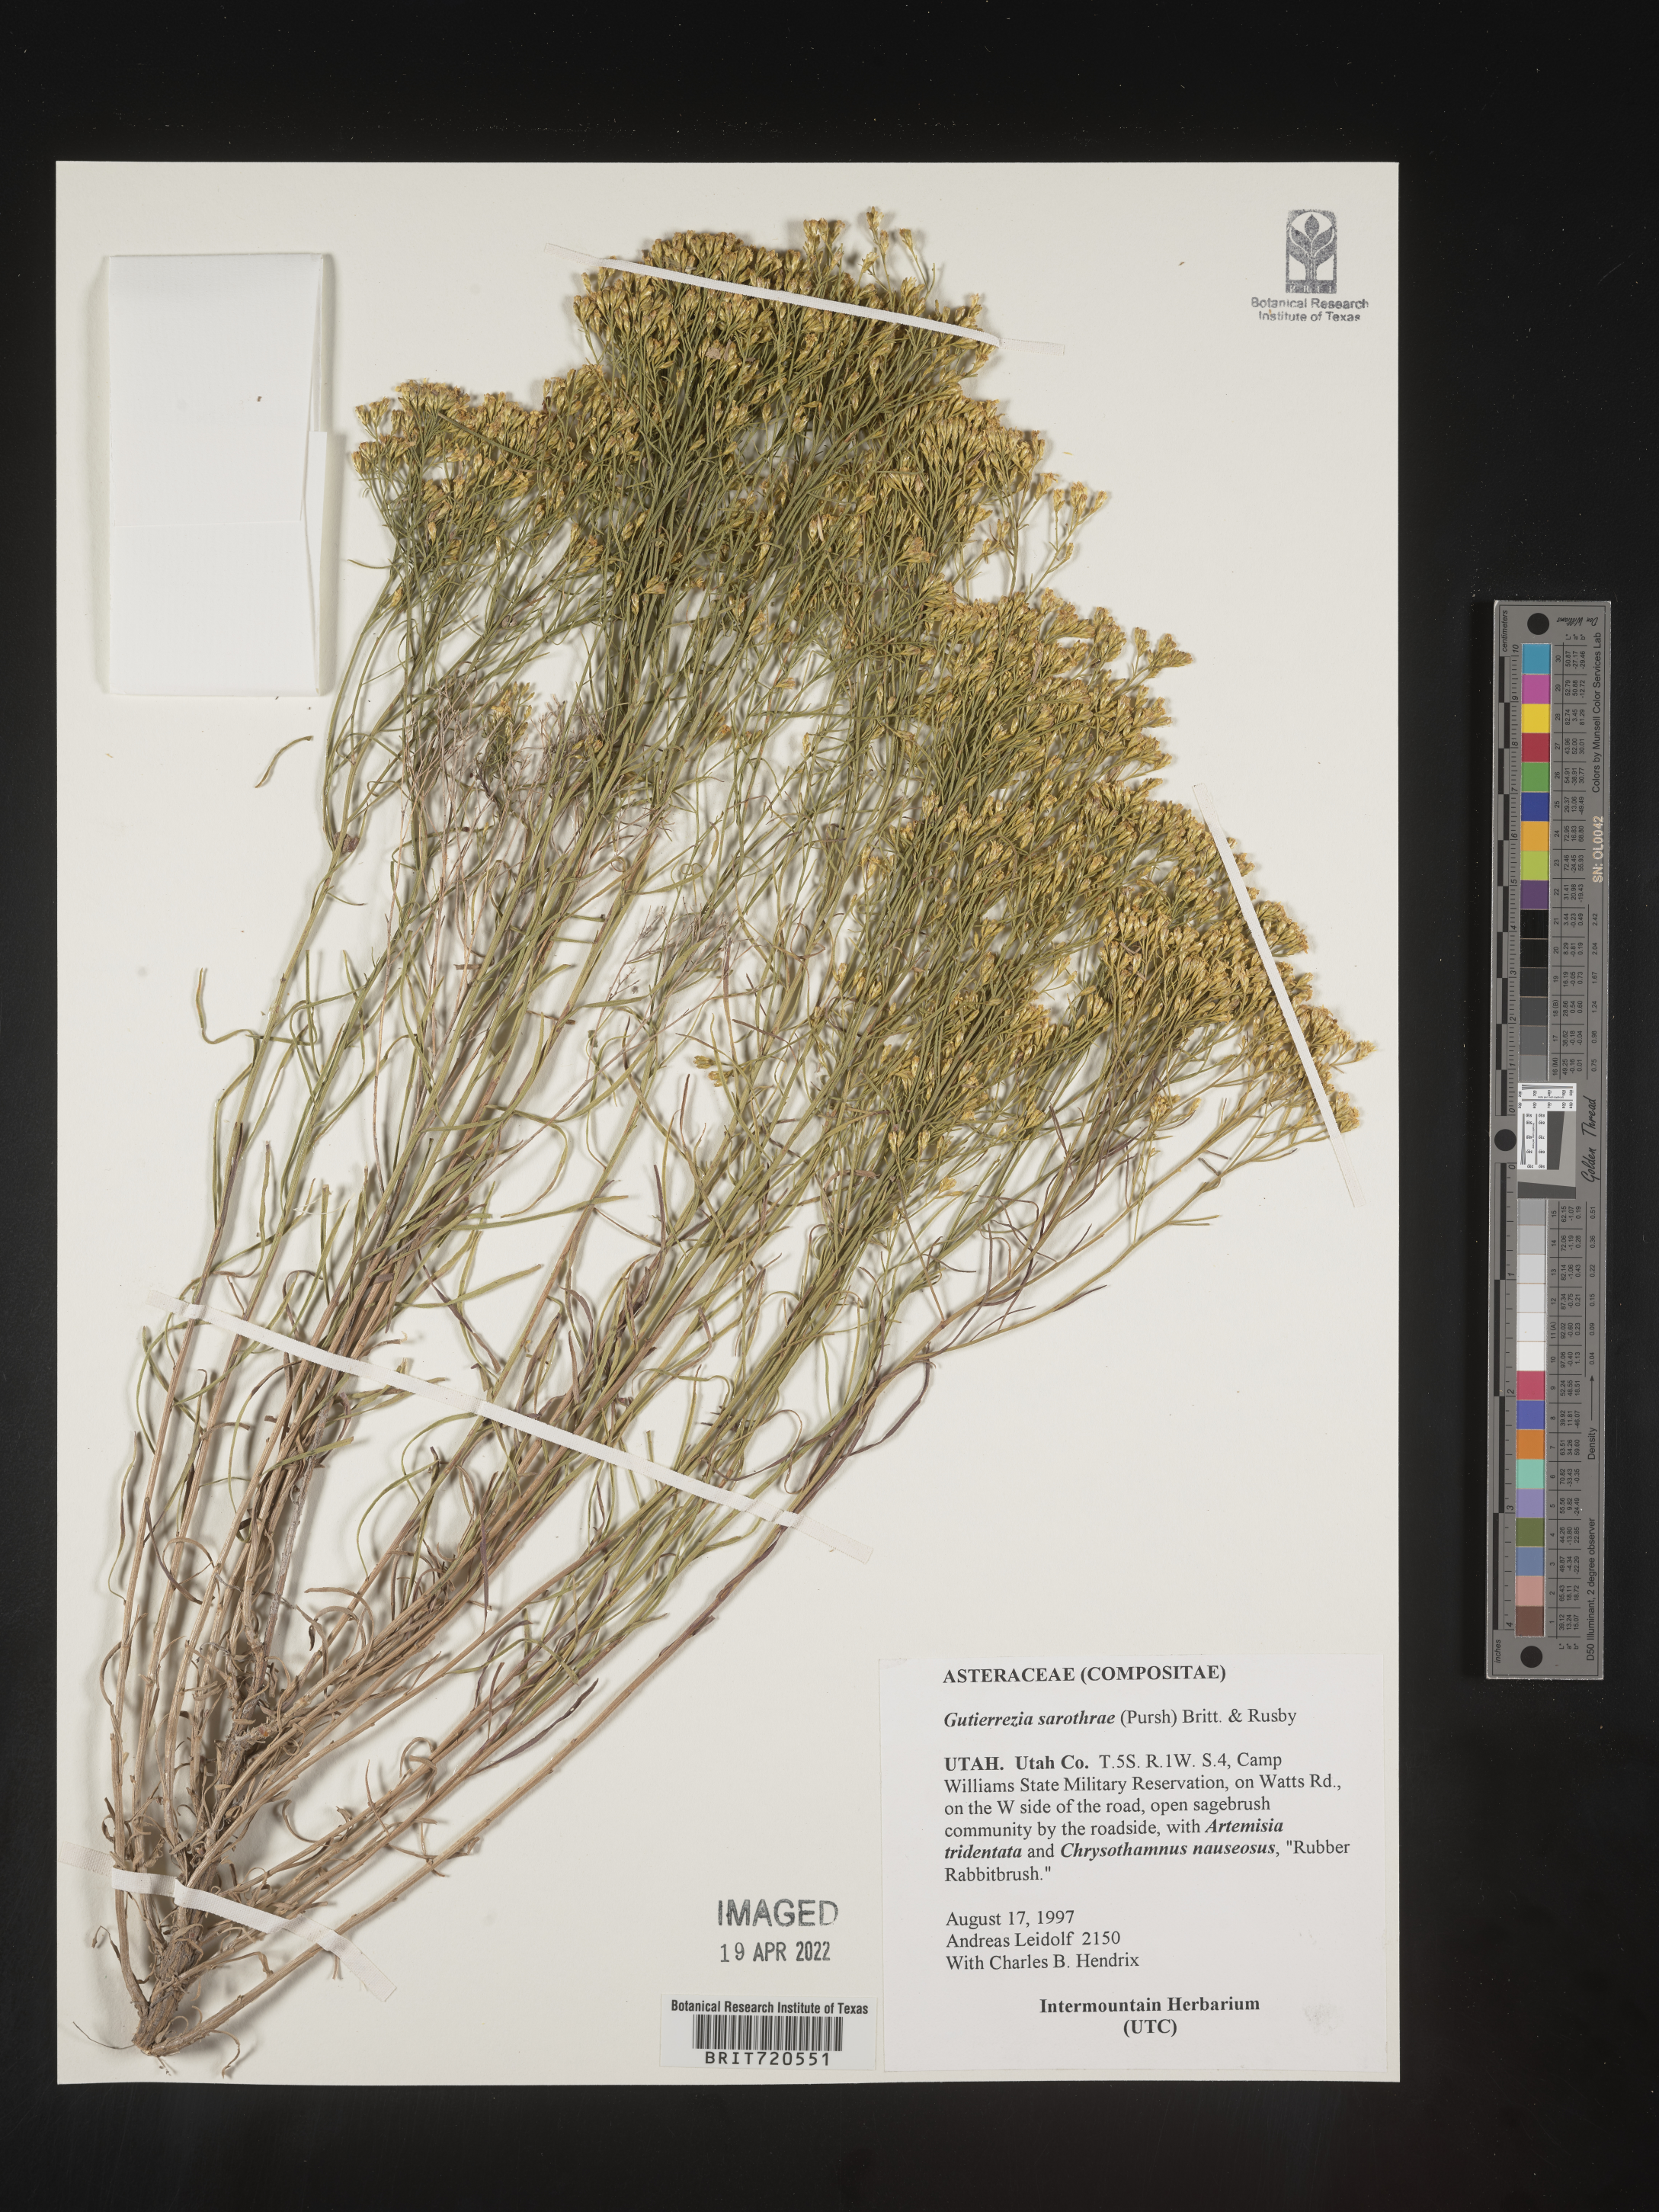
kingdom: Plantae
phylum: Tracheophyta
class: Magnoliopsida
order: Asterales
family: Asteraceae
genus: Gutierrezia
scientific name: Gutierrezia sarothrae
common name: Broom snakeweed
